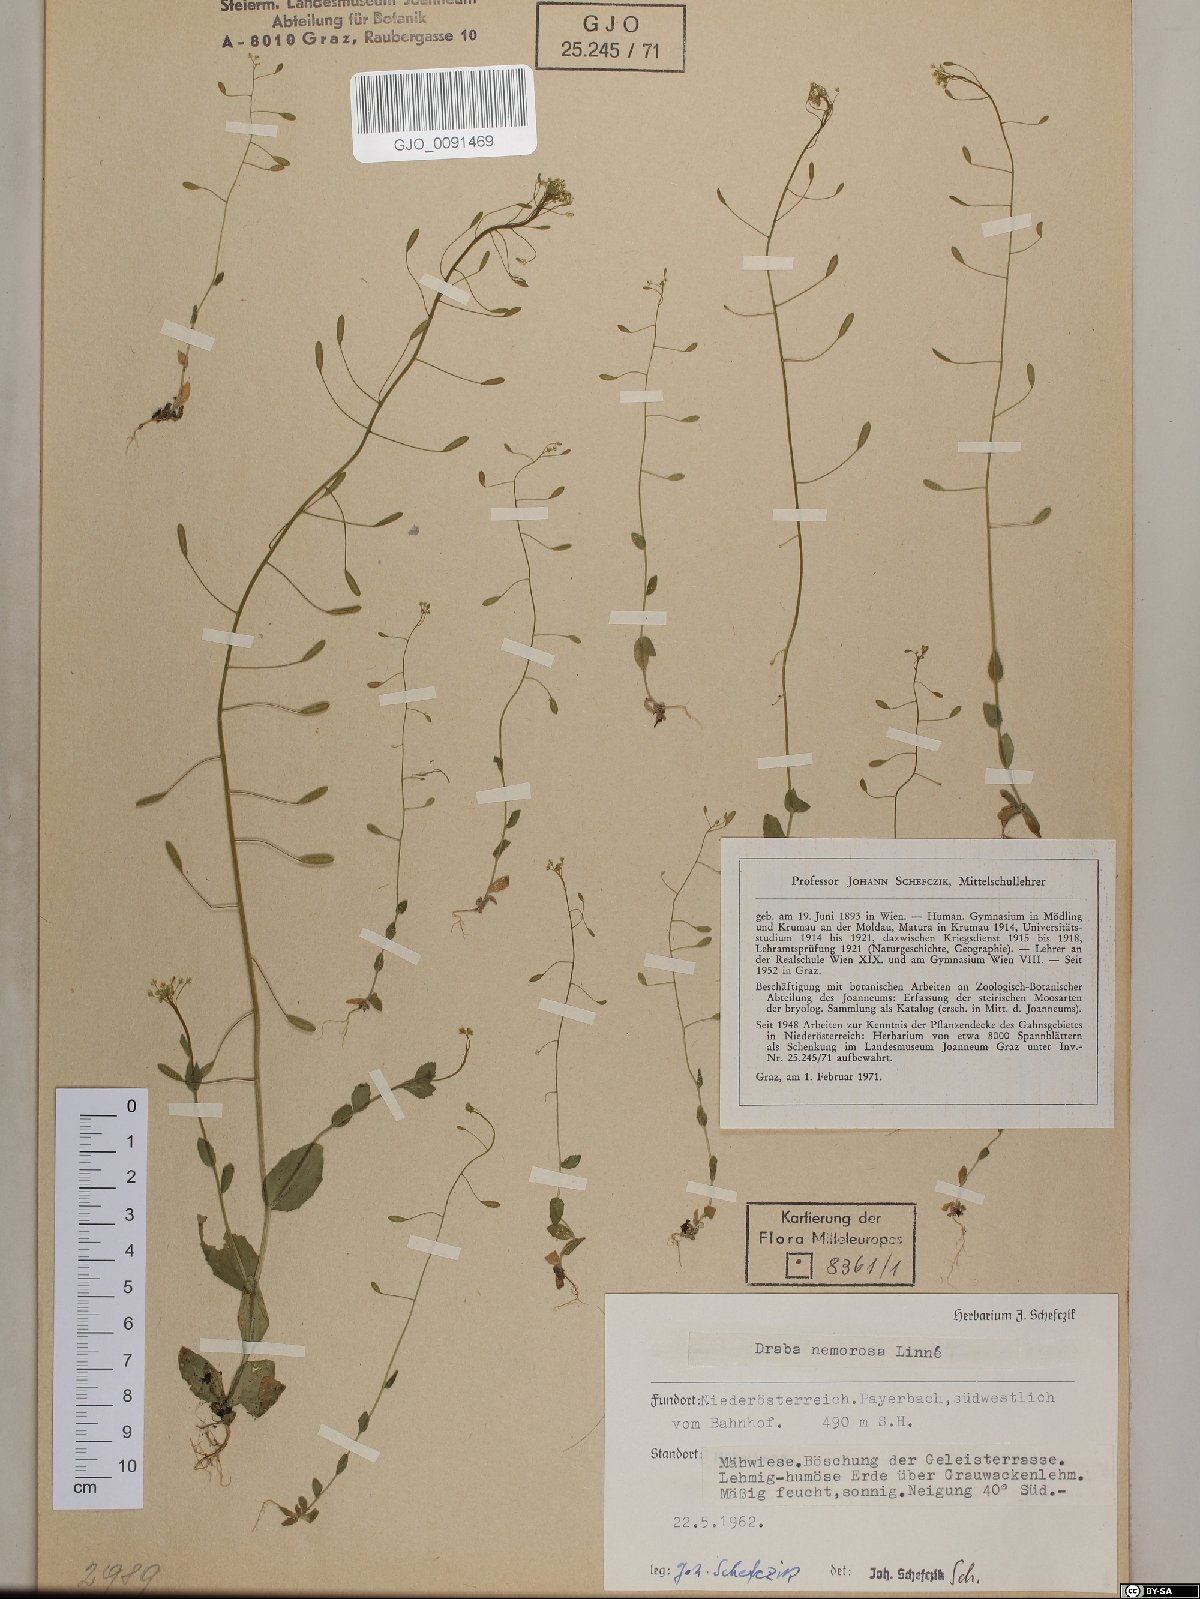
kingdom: Plantae
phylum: Tracheophyta
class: Magnoliopsida
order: Brassicales
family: Brassicaceae
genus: Draba
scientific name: Draba nemorosa
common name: Wood whitlow-grass
